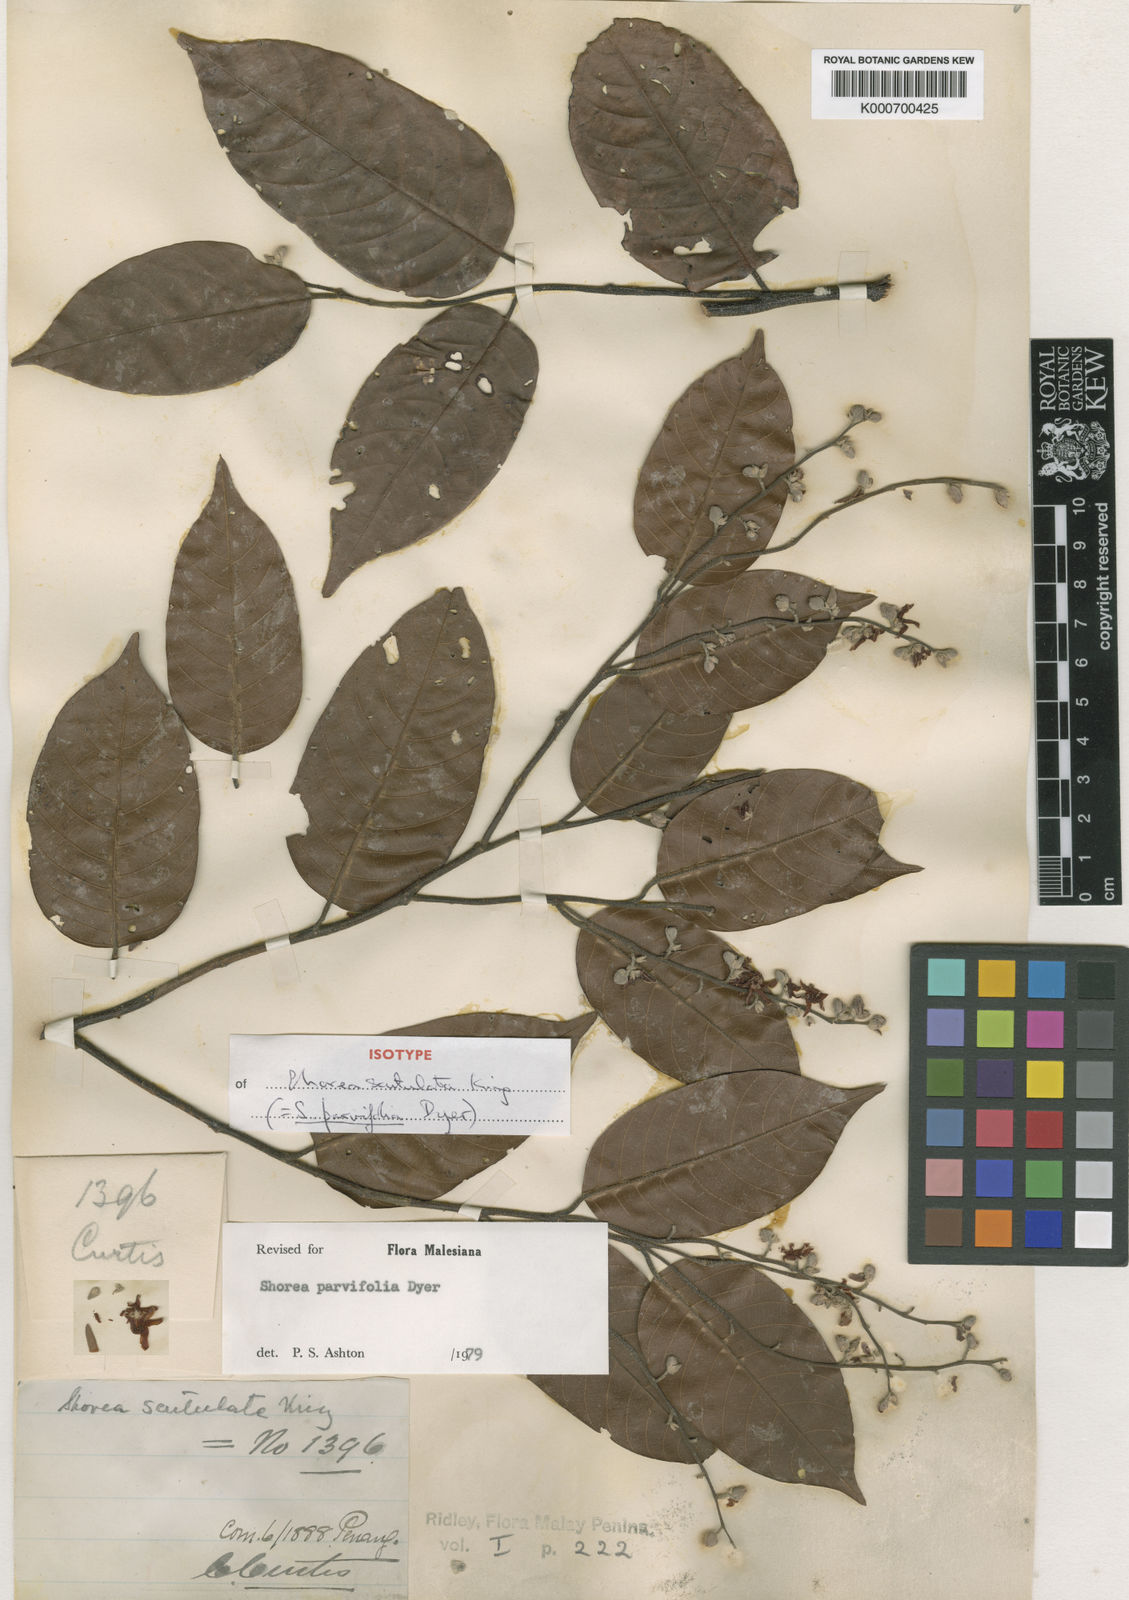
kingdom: Plantae
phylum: Tracheophyta
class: Magnoliopsida
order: Malvales
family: Dipterocarpaceae
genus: Shorea
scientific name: Shorea parvifolia
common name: Light red meranti
